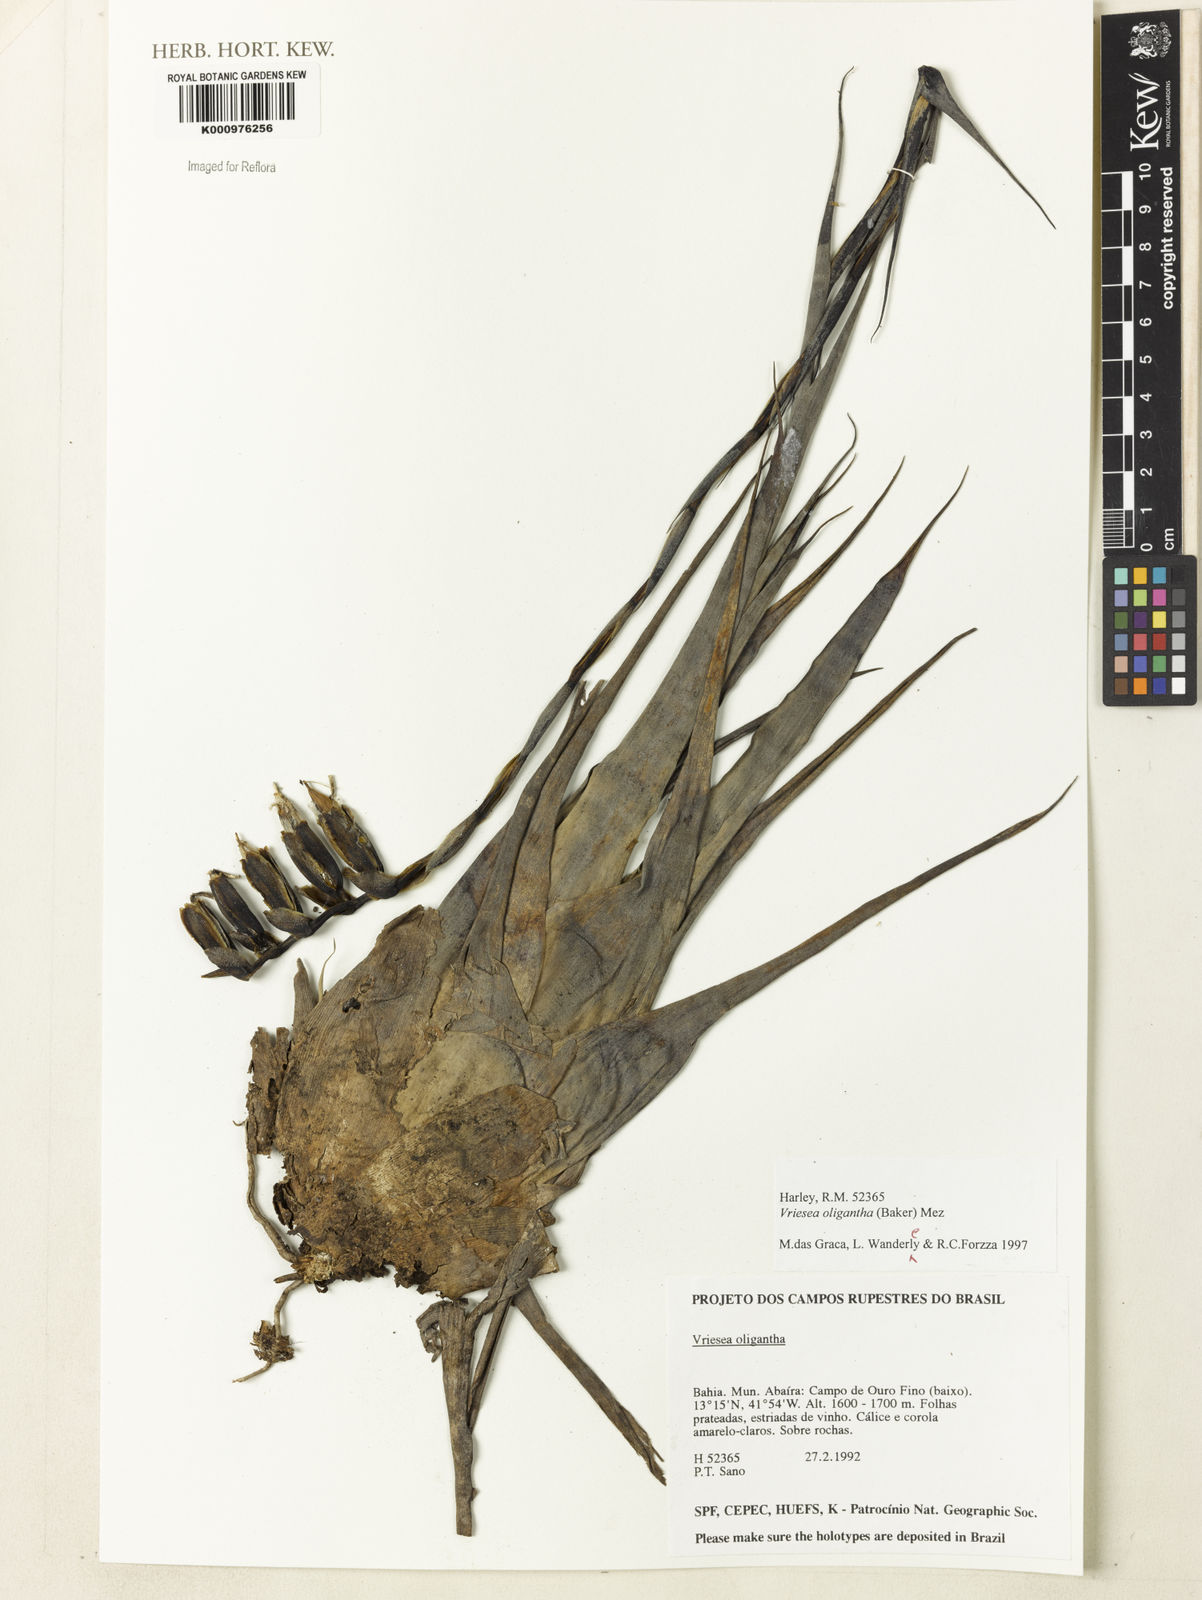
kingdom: Plantae
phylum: Tracheophyta
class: Liliopsida
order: Poales
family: Bromeliaceae
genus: Vriesea
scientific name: Vriesea oligantha
